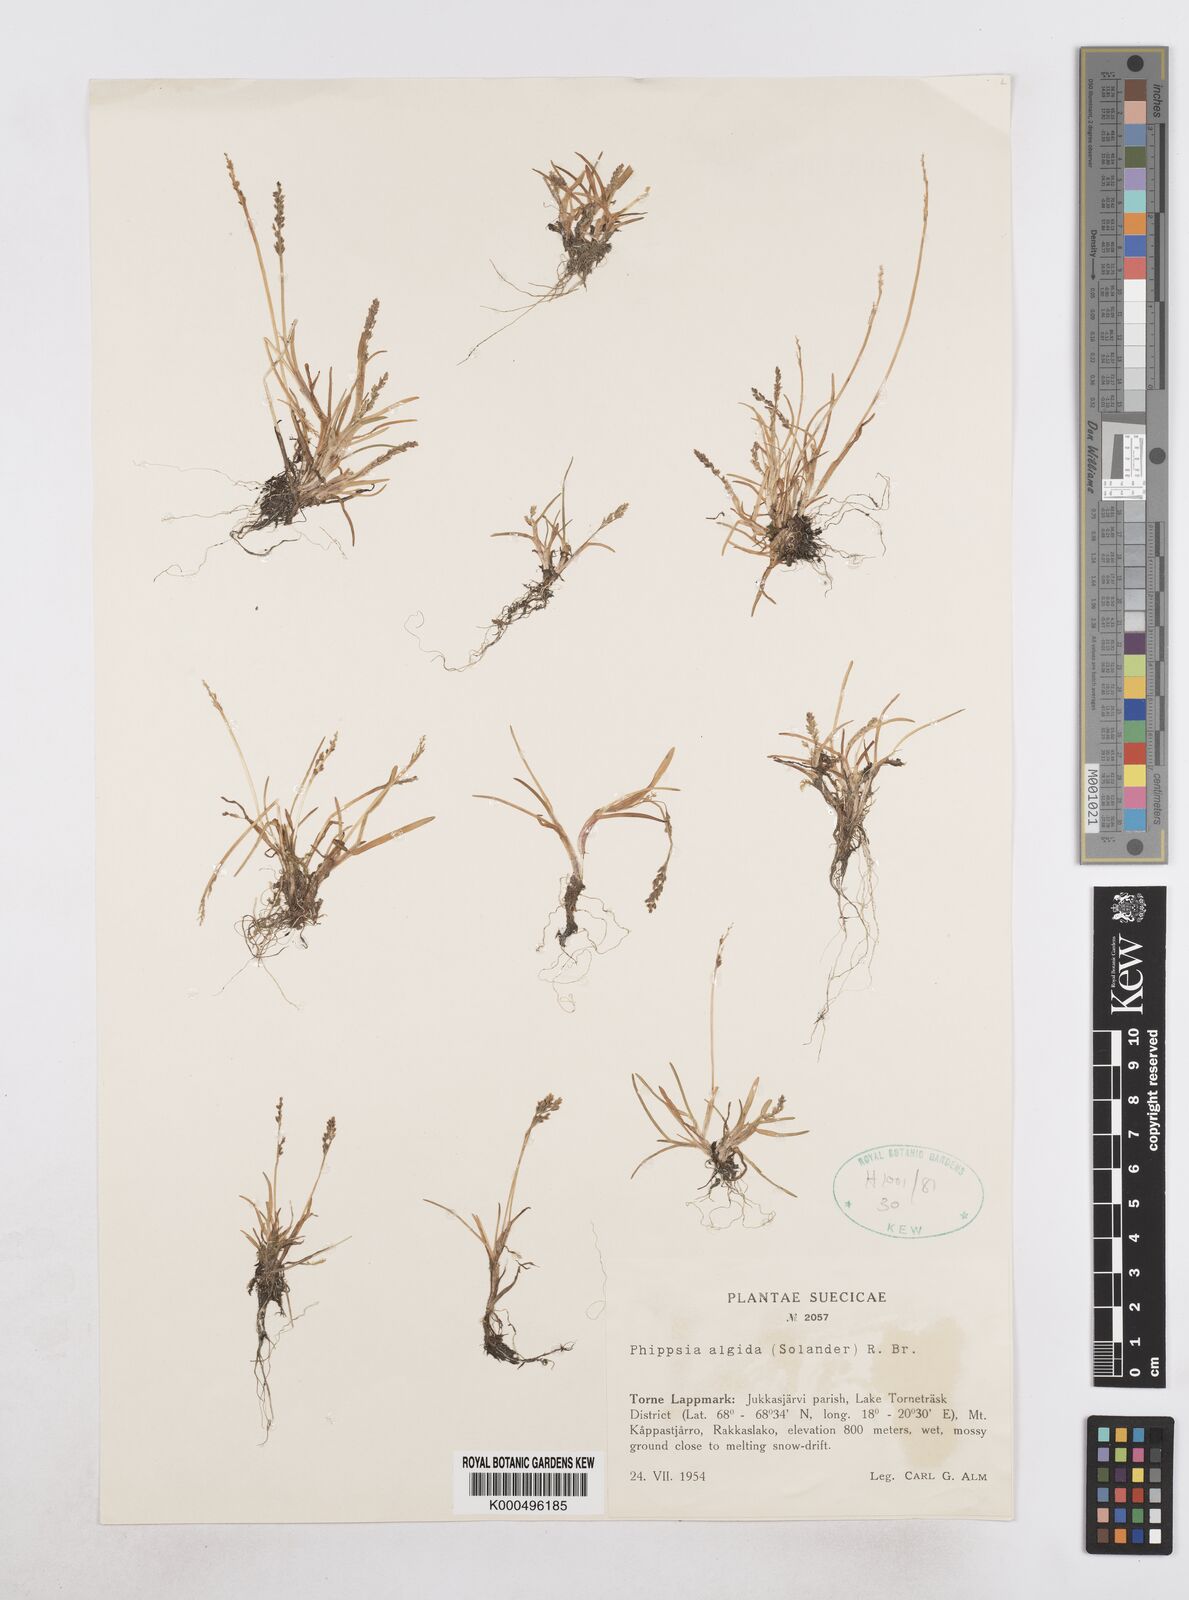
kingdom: Plantae
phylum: Tracheophyta
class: Liliopsida
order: Poales
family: Poaceae
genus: Phippsia
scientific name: Phippsia algida
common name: Ice grass
